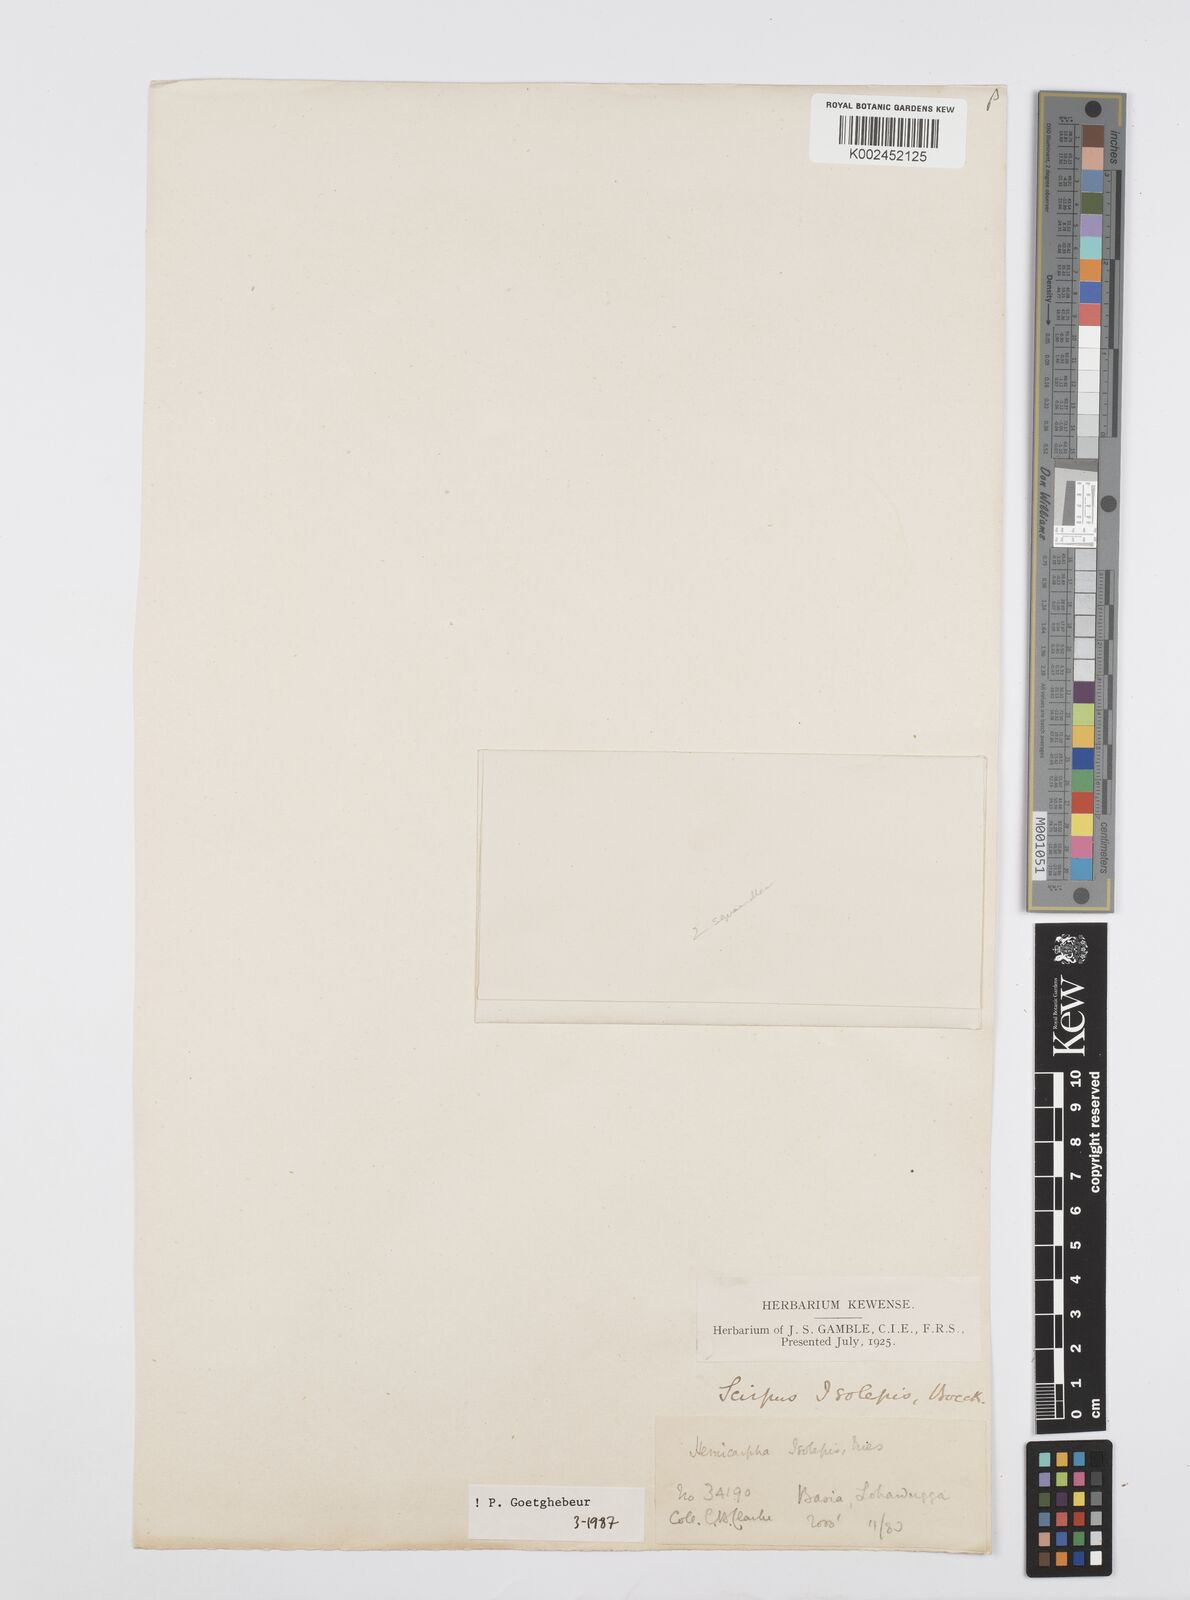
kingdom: Plantae
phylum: Tracheophyta
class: Liliopsida
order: Poales
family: Cyperaceae
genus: Cyperus
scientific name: Cyperus hemisphaericus
